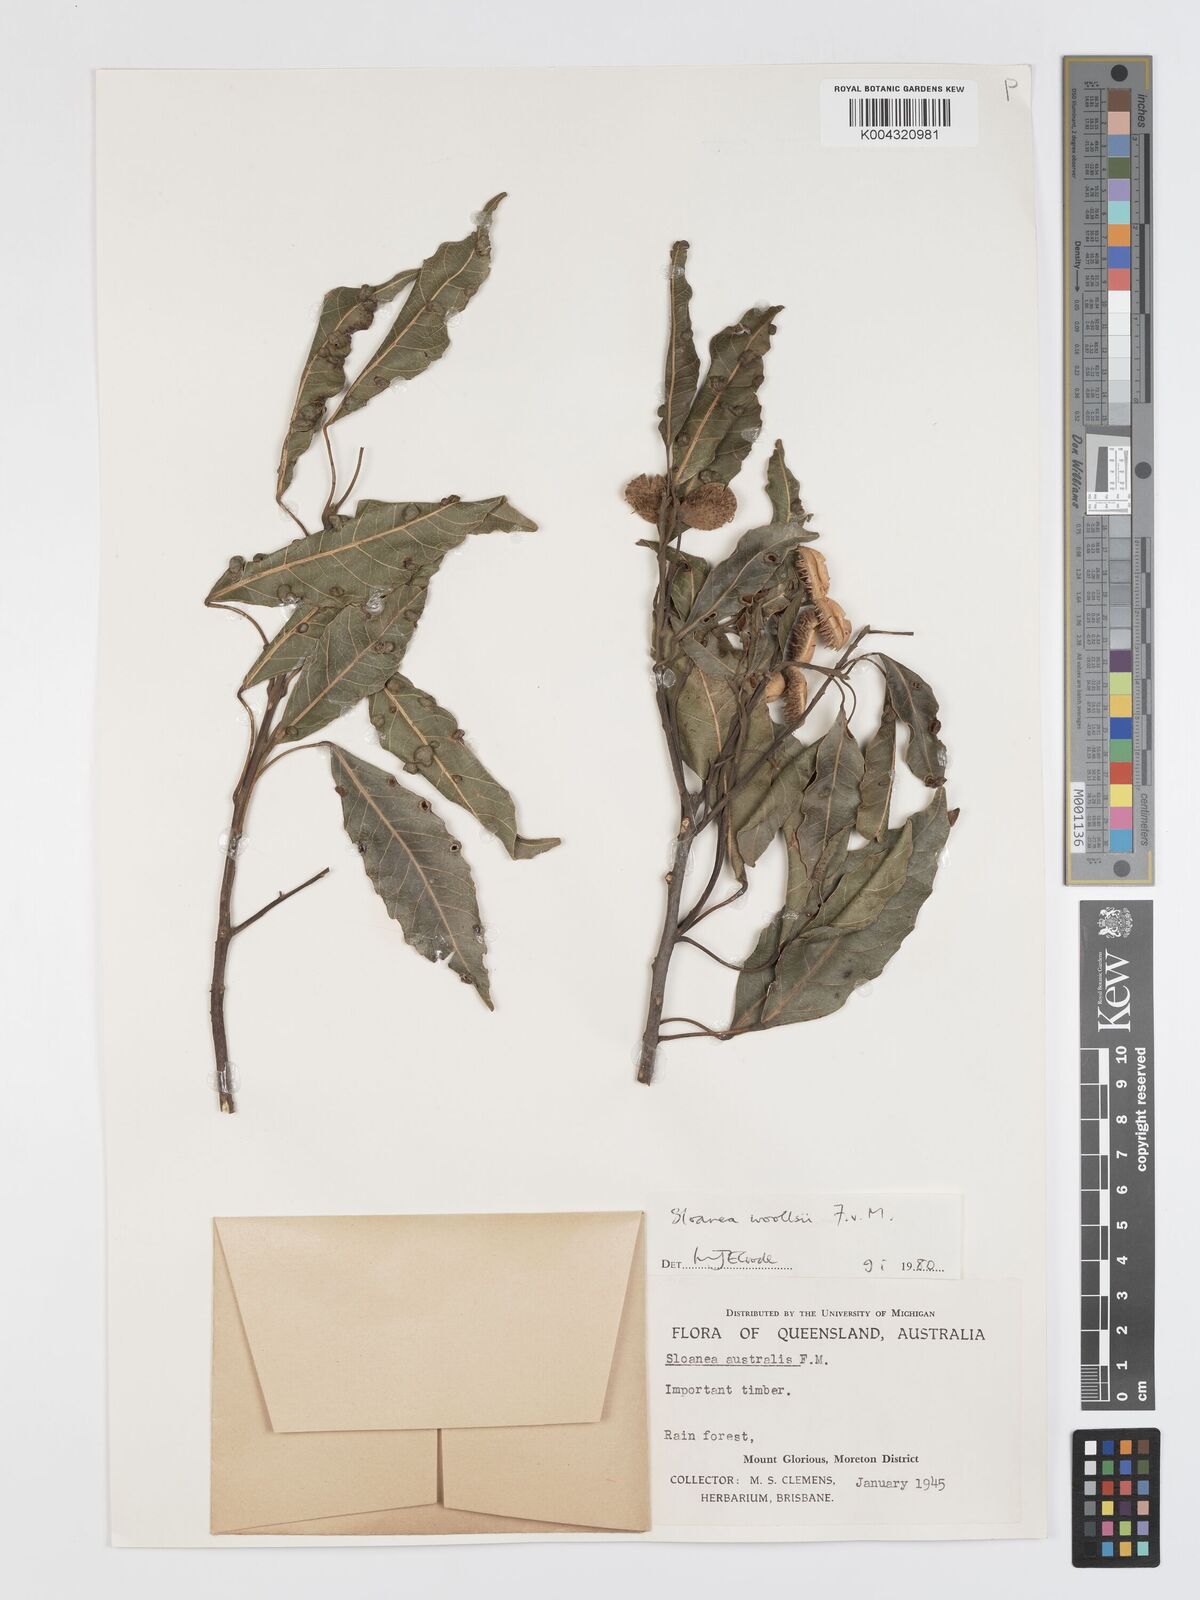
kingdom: Plantae
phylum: Tracheophyta
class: Magnoliopsida
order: Oxalidales
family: Elaeocarpaceae
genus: Sloanea
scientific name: Sloanea woollsii
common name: Yellow carabeen
